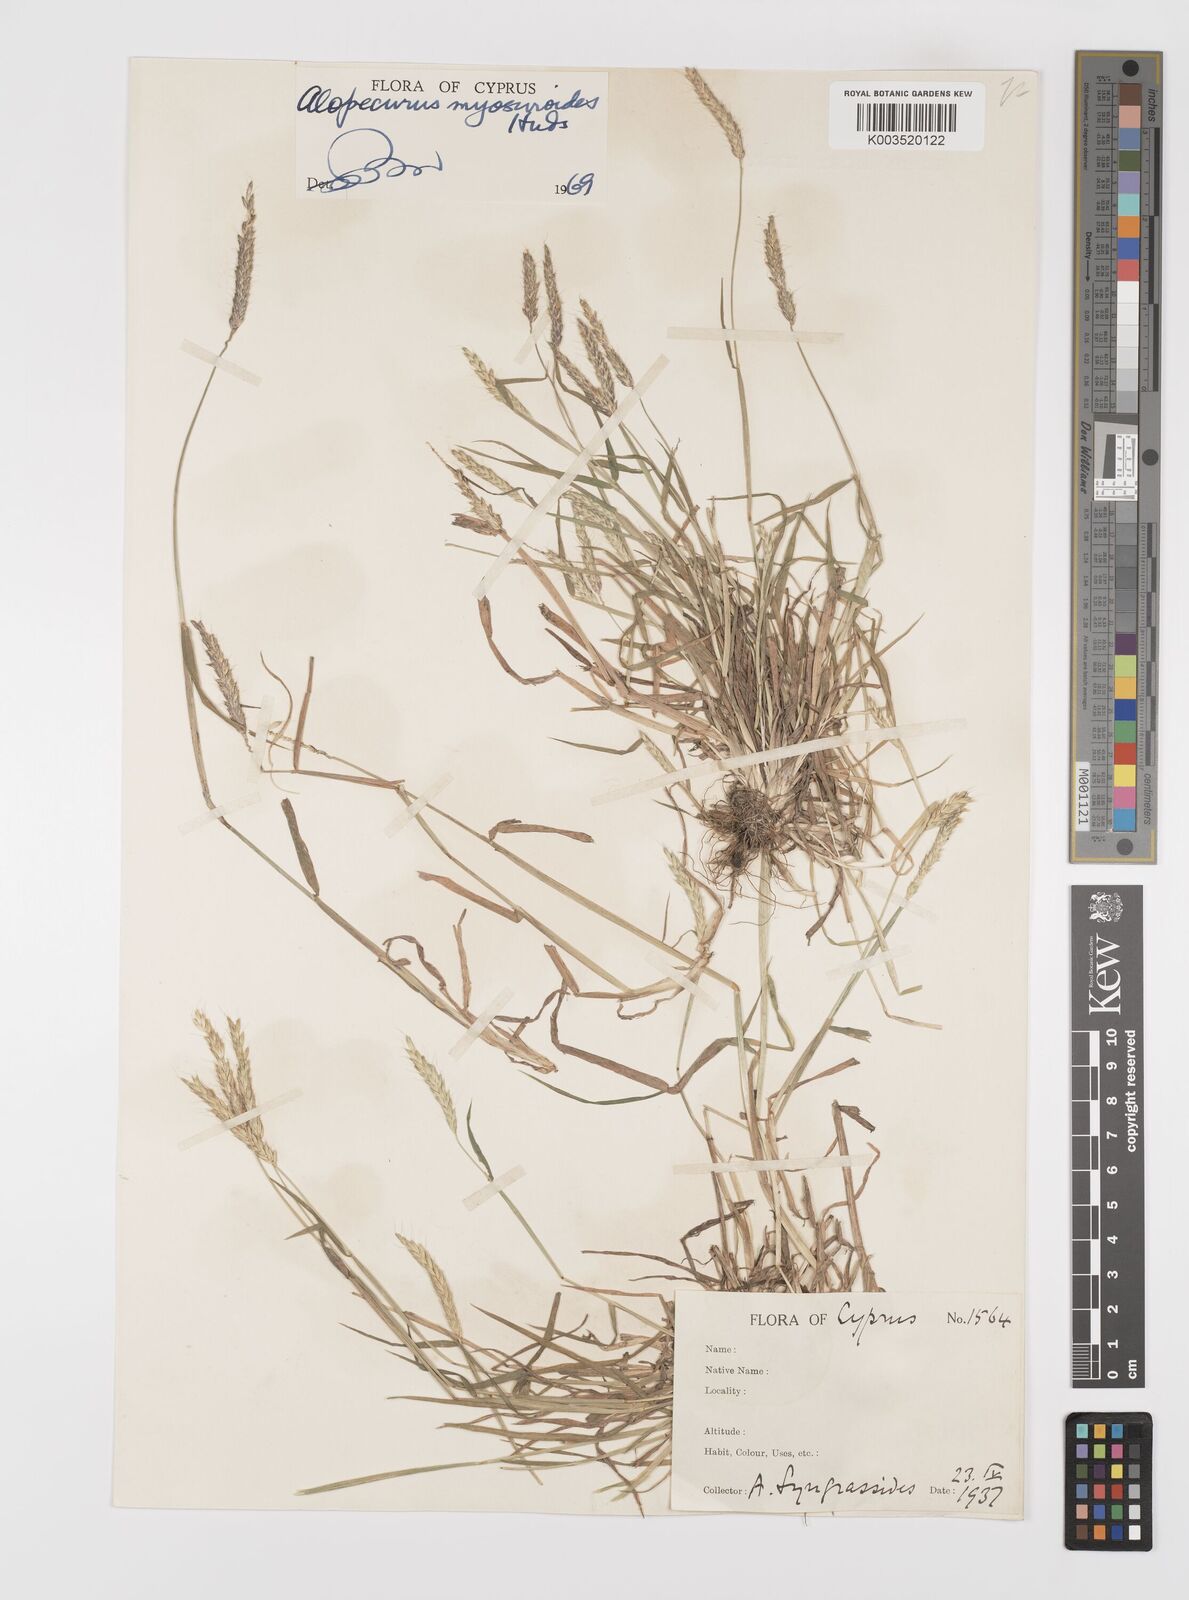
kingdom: Plantae
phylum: Tracheophyta
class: Liliopsida
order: Poales
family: Poaceae
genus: Alopecurus
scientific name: Alopecurus myosuroides
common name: Black-grass
